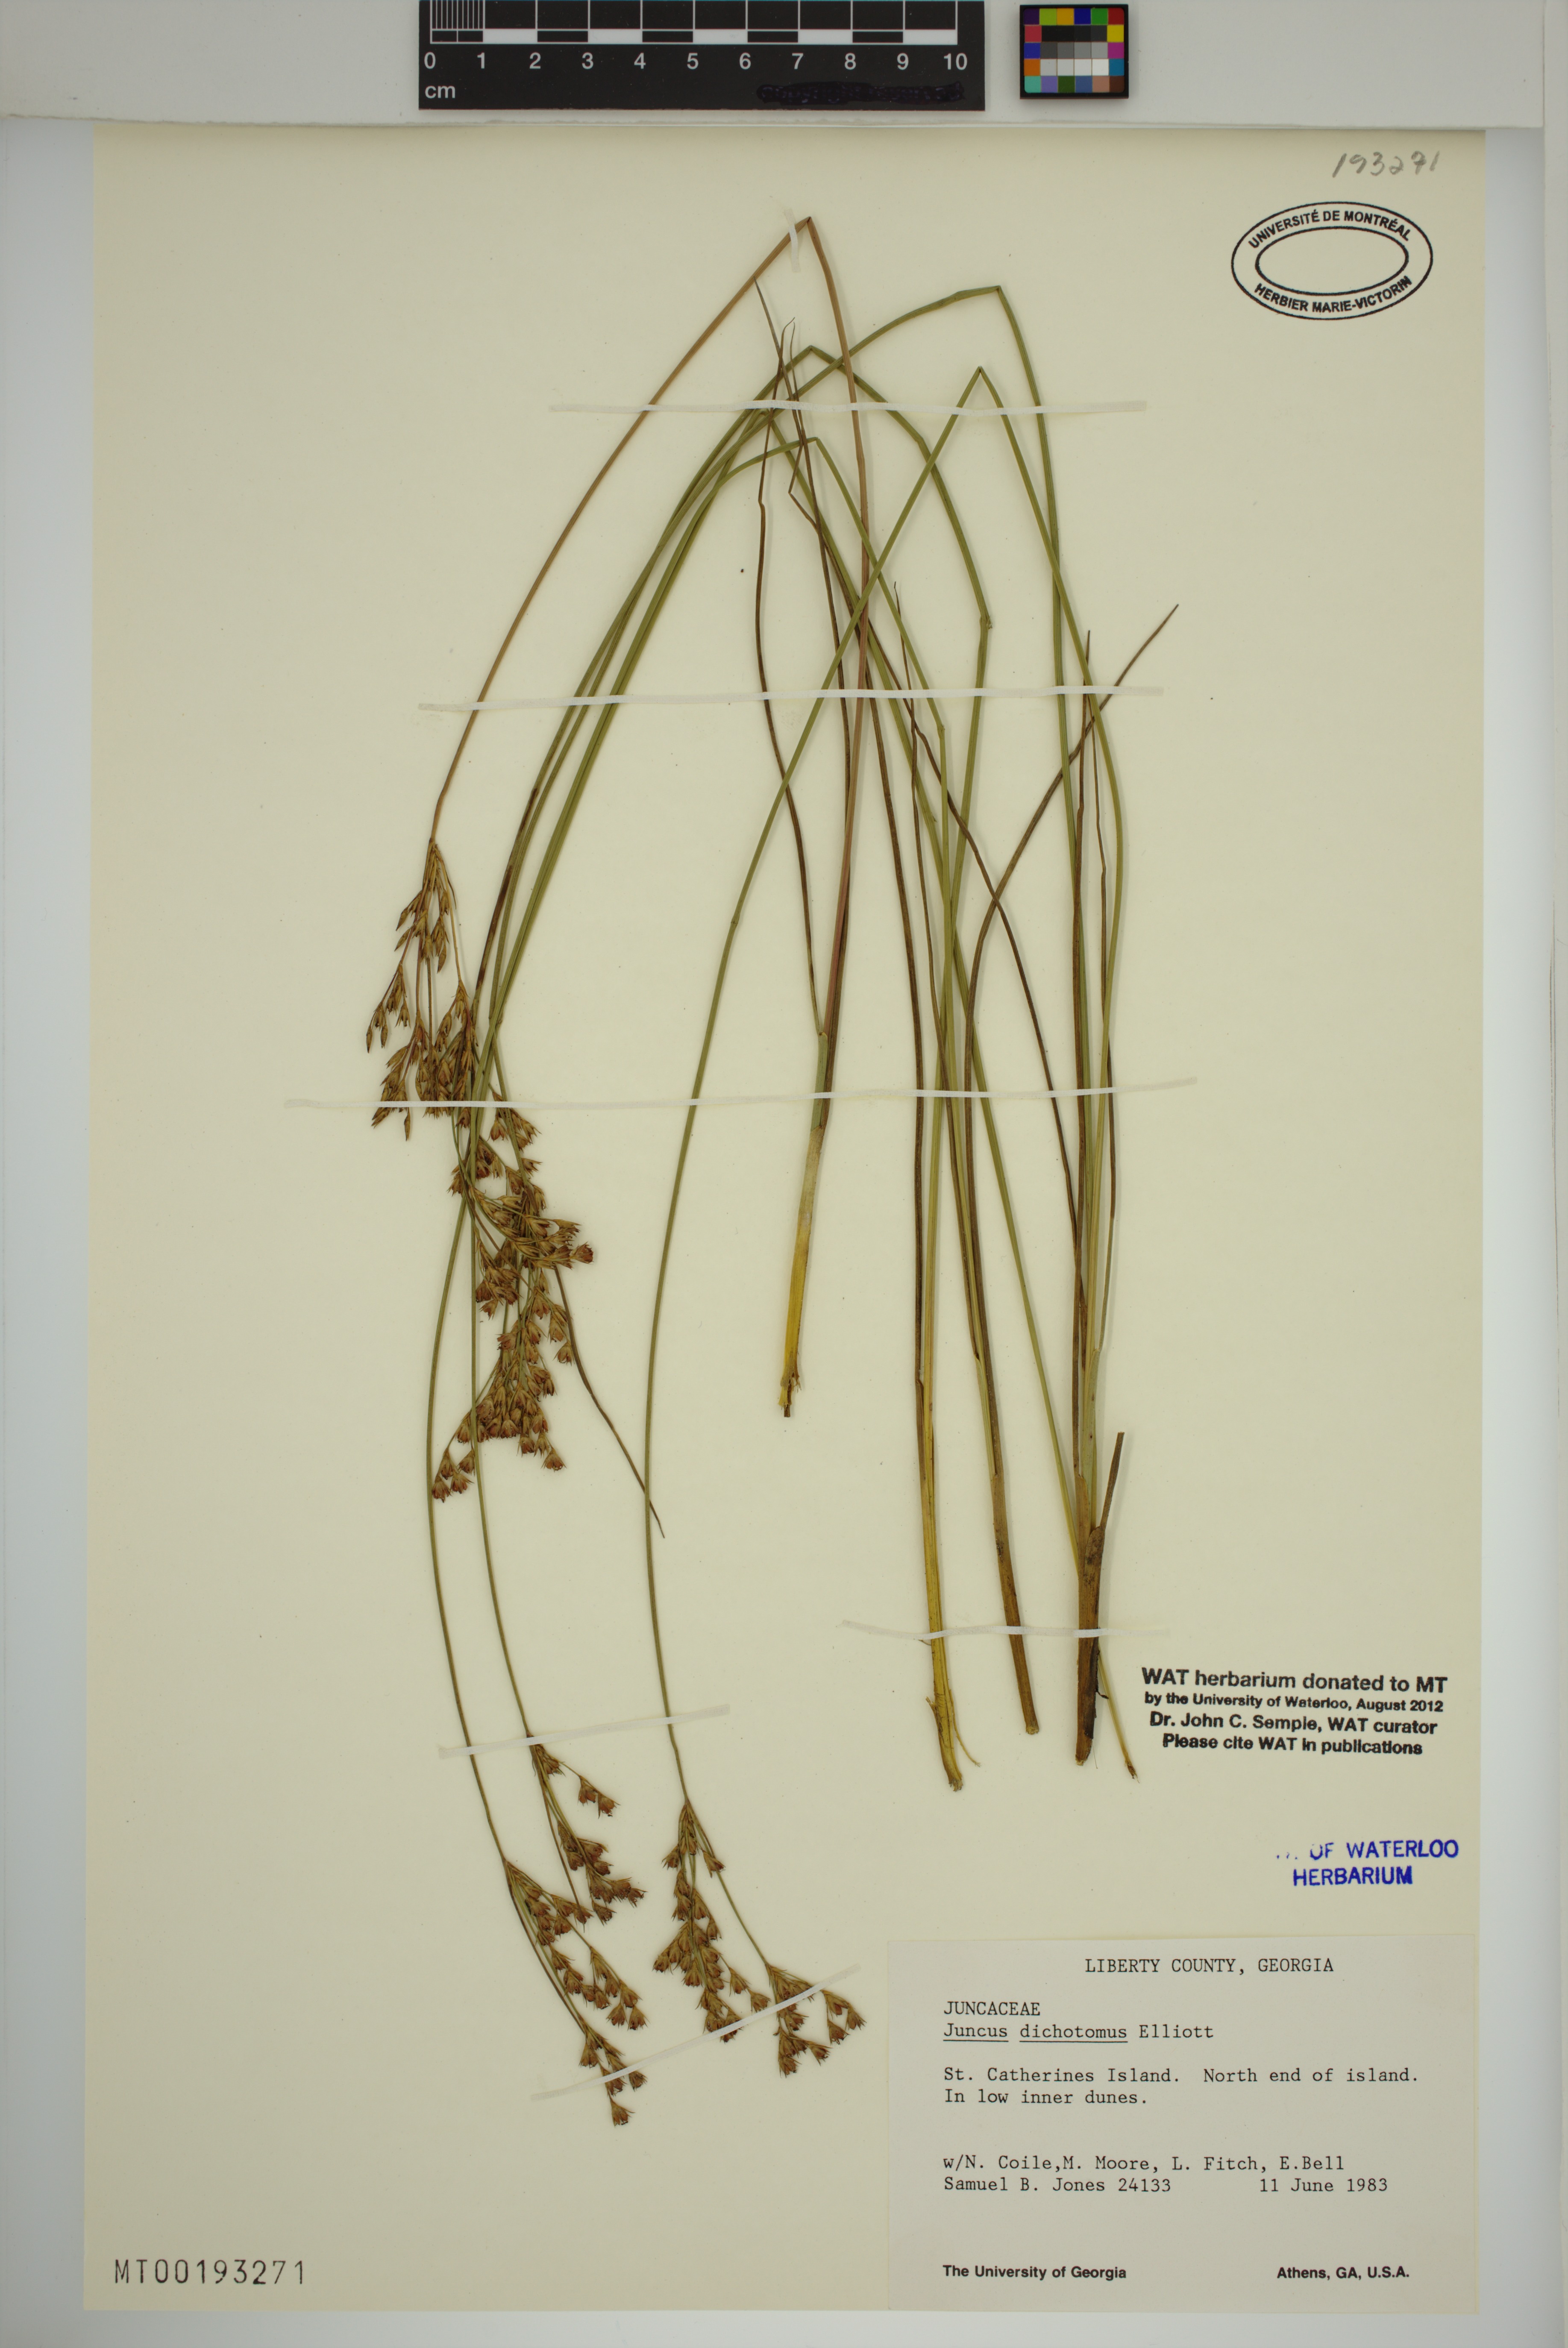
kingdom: Plantae
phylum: Tracheophyta
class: Liliopsida
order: Poales
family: Juncaceae
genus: Juncus
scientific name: Juncus dichotomus
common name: Forked rush
